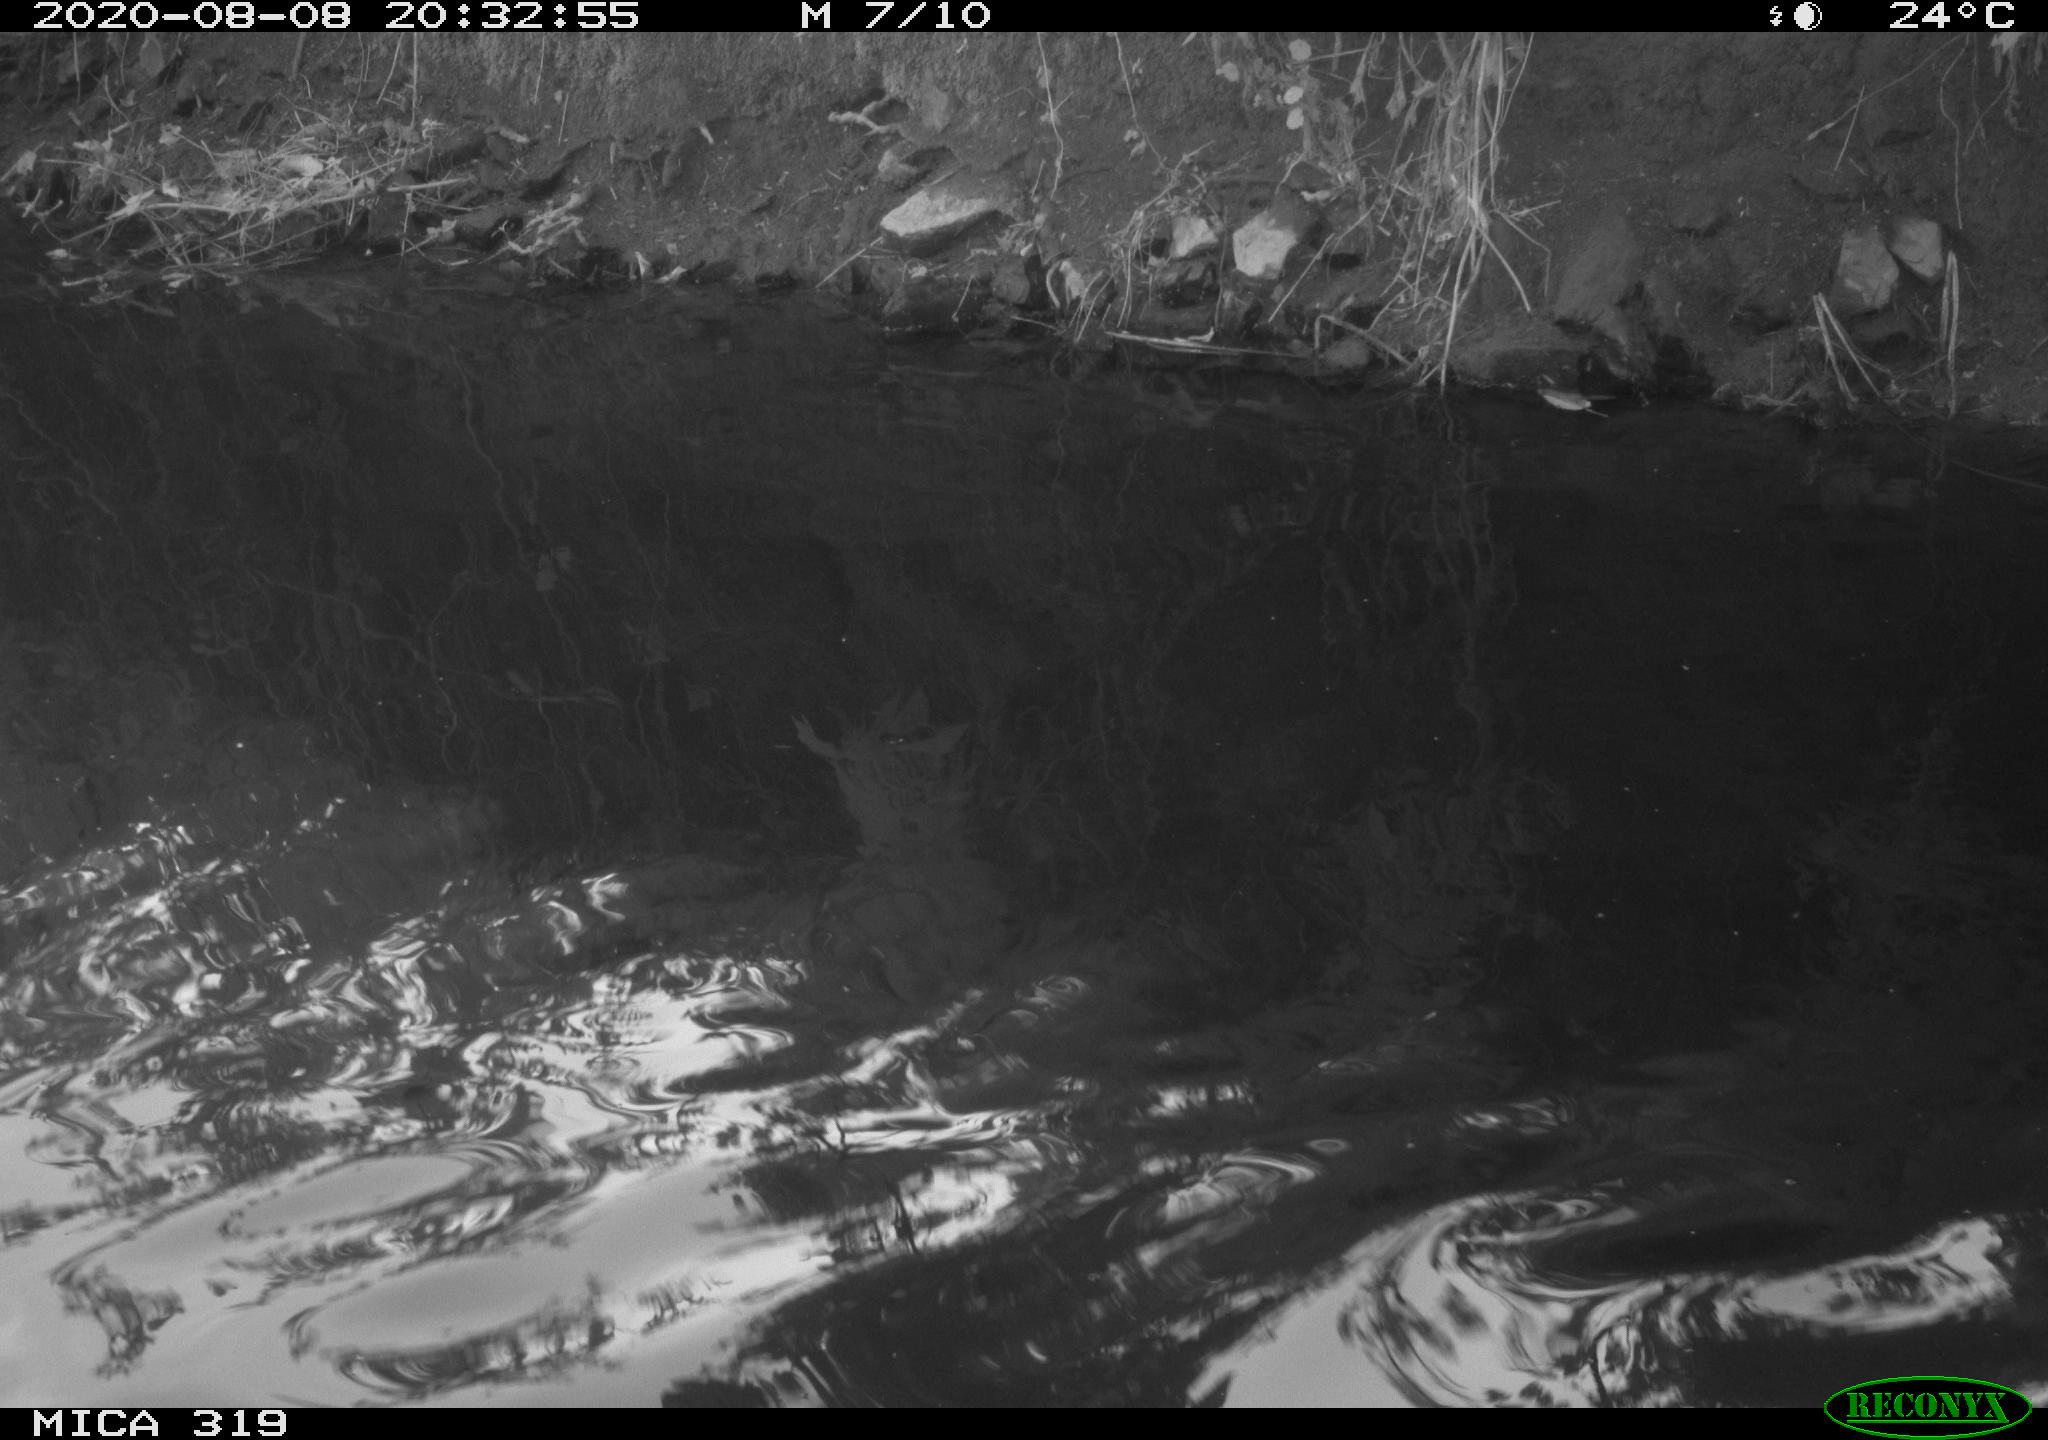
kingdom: Animalia
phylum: Chordata
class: Aves
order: Anseriformes
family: Anatidae
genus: Anas
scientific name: Anas platyrhynchos
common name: Mallard
